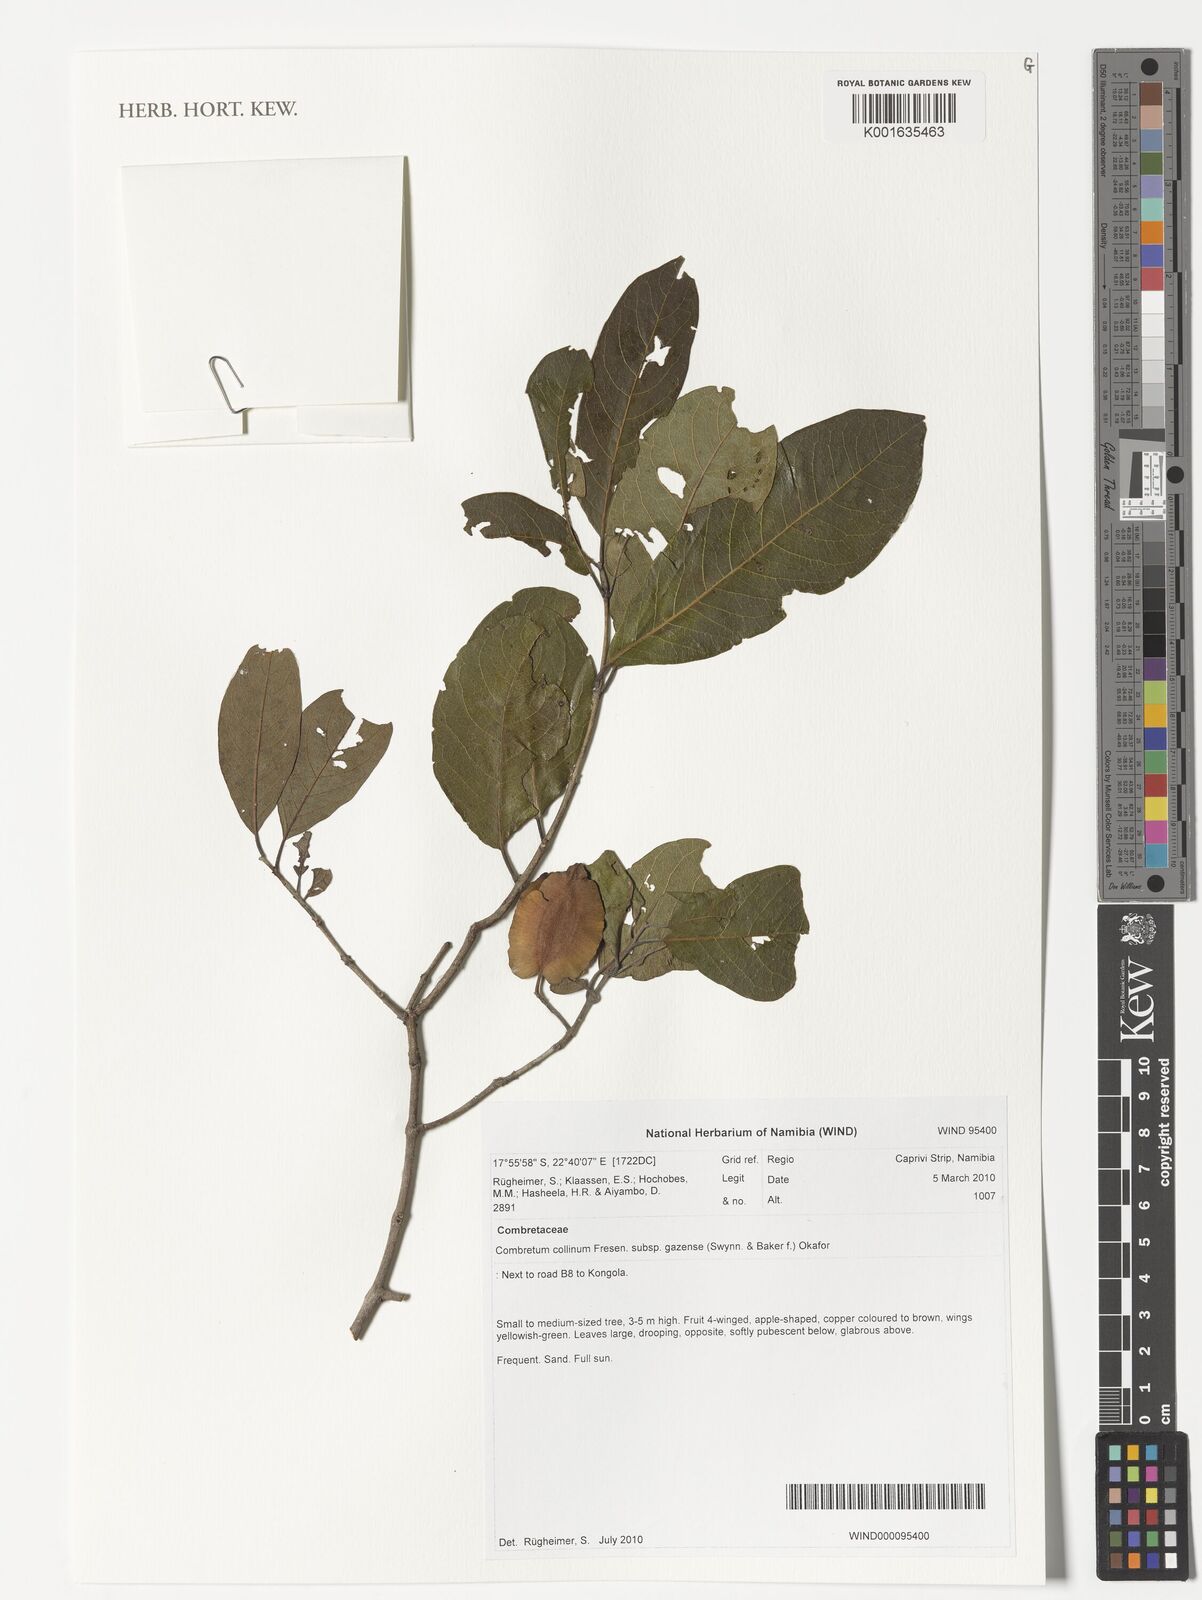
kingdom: Plantae
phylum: Tracheophyta
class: Magnoliopsida
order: Myrtales
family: Combretaceae
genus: Combretum
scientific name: Combretum collinum
